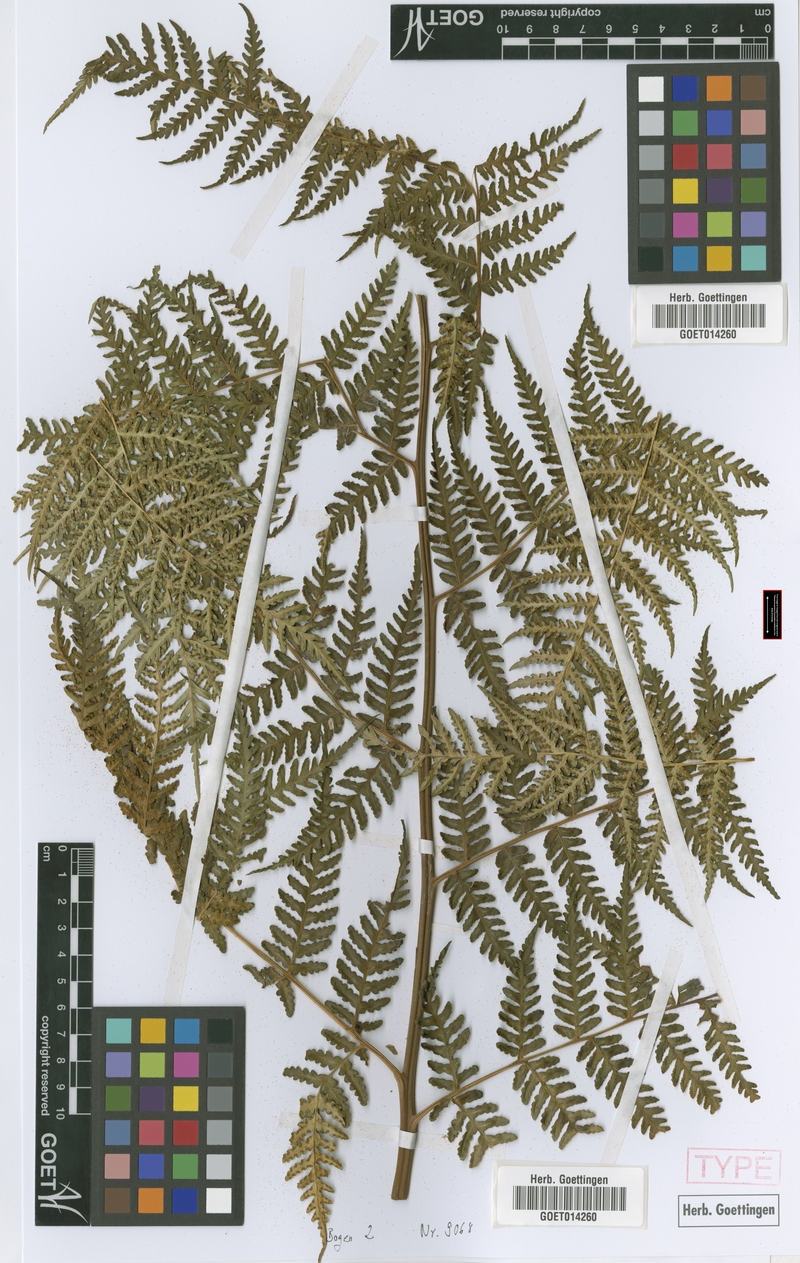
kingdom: Plantae
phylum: Tracheophyta
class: Polypodiopsida
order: Polypodiales
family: Dennstaedtiaceae
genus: Hypolepis
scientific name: Hypolepis scandens
